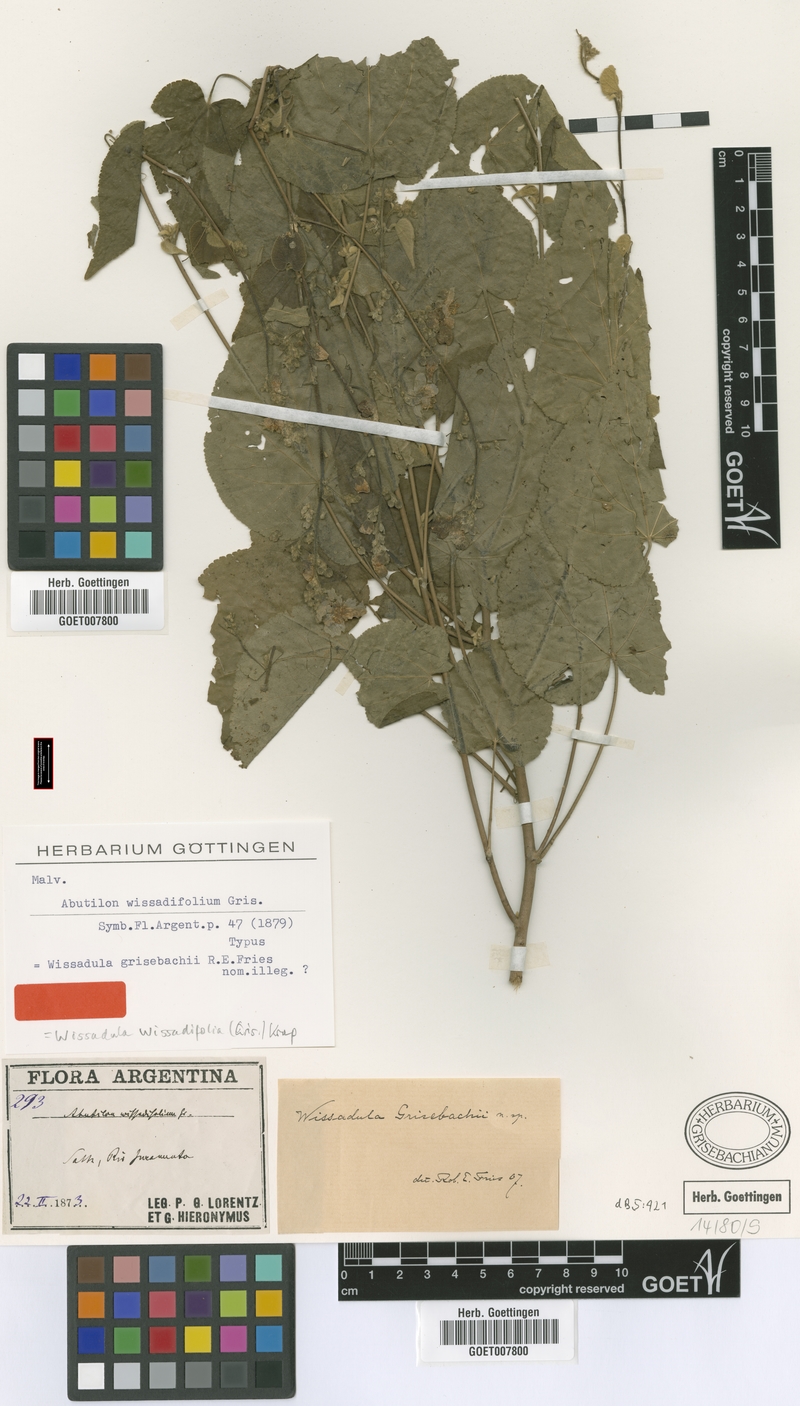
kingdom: Plantae
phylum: Tracheophyta
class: Magnoliopsida
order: Malvales
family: Malvaceae
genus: Wissadula
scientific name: Wissadula wissadifolia
